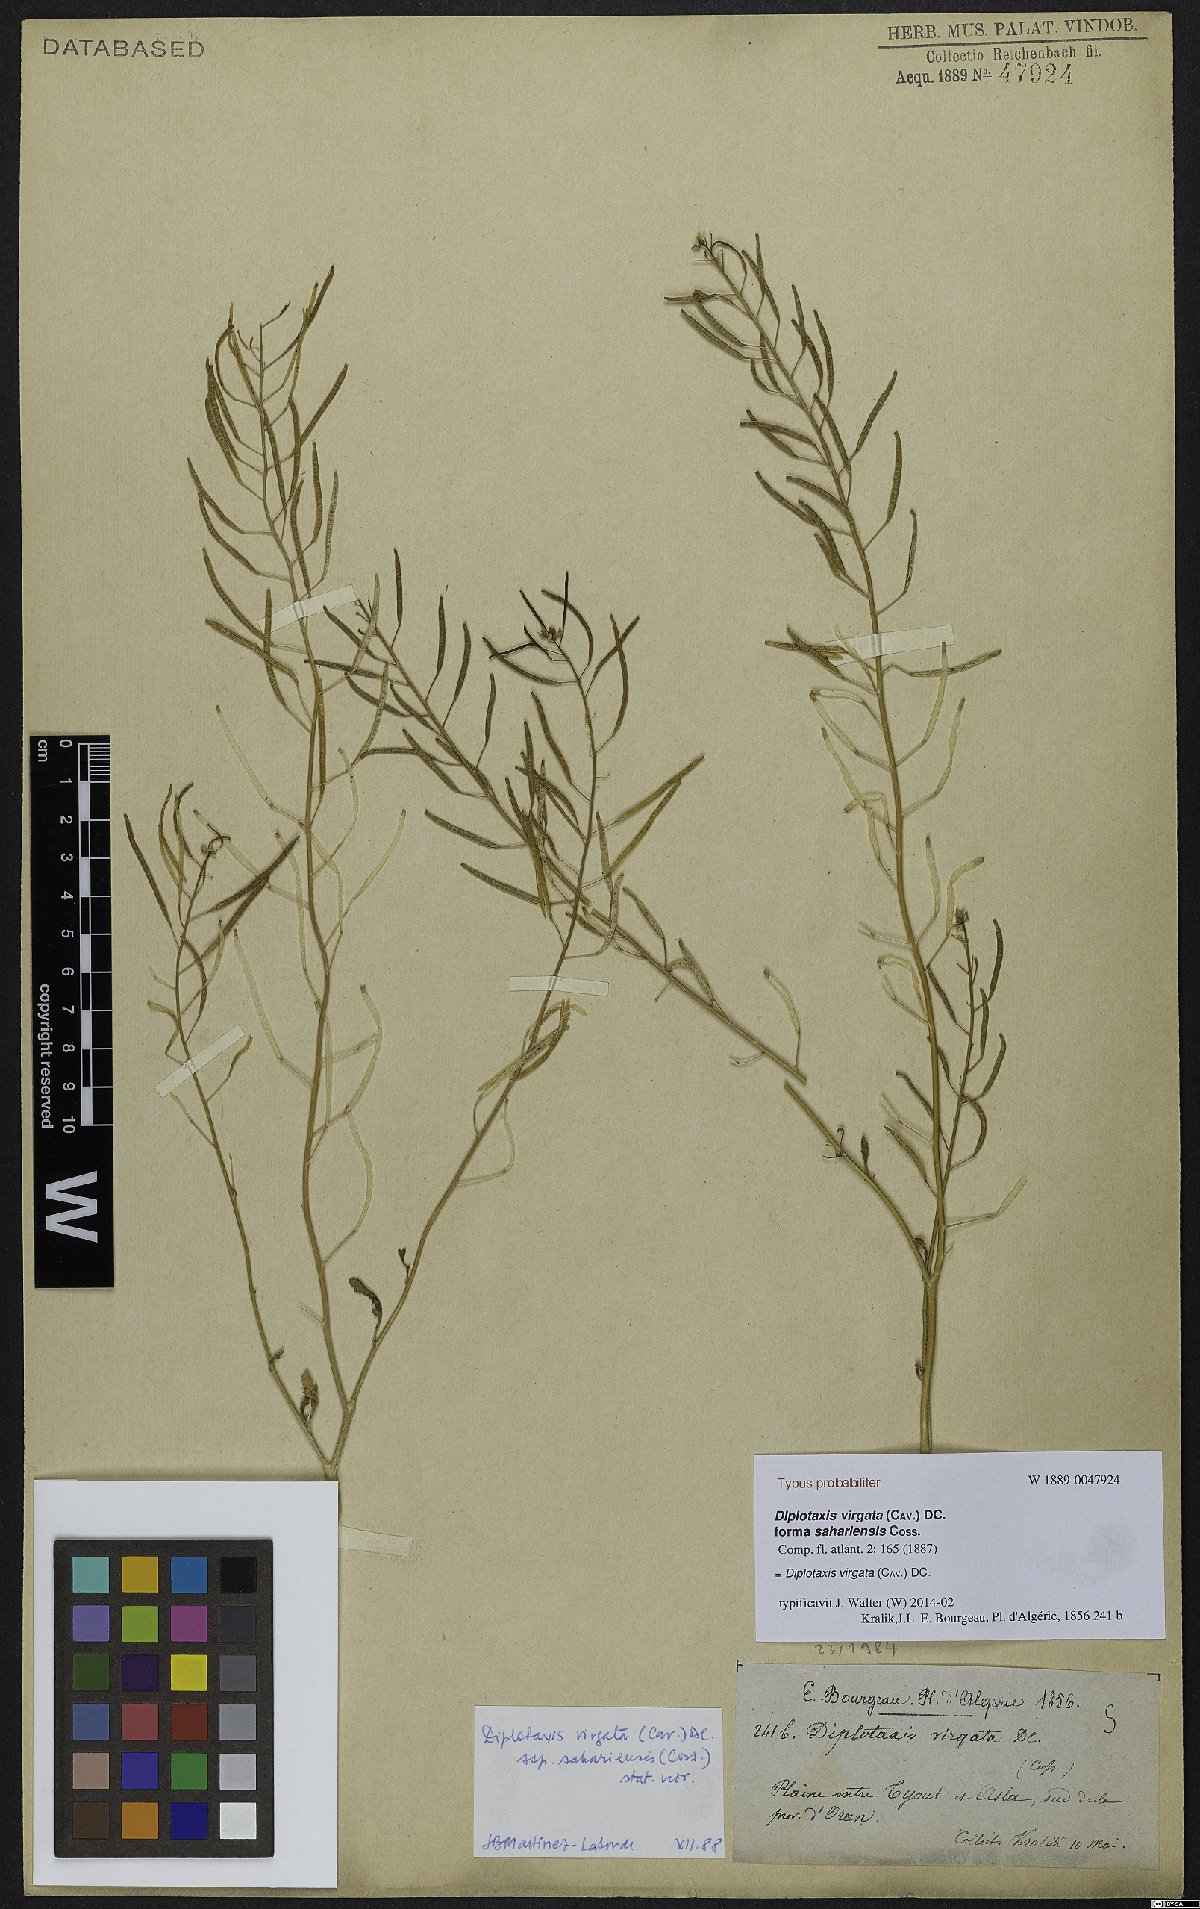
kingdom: Plantae
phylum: Tracheophyta
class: Magnoliopsida
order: Brassicales
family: Brassicaceae
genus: Diplotaxis
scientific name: Diplotaxis virgata
